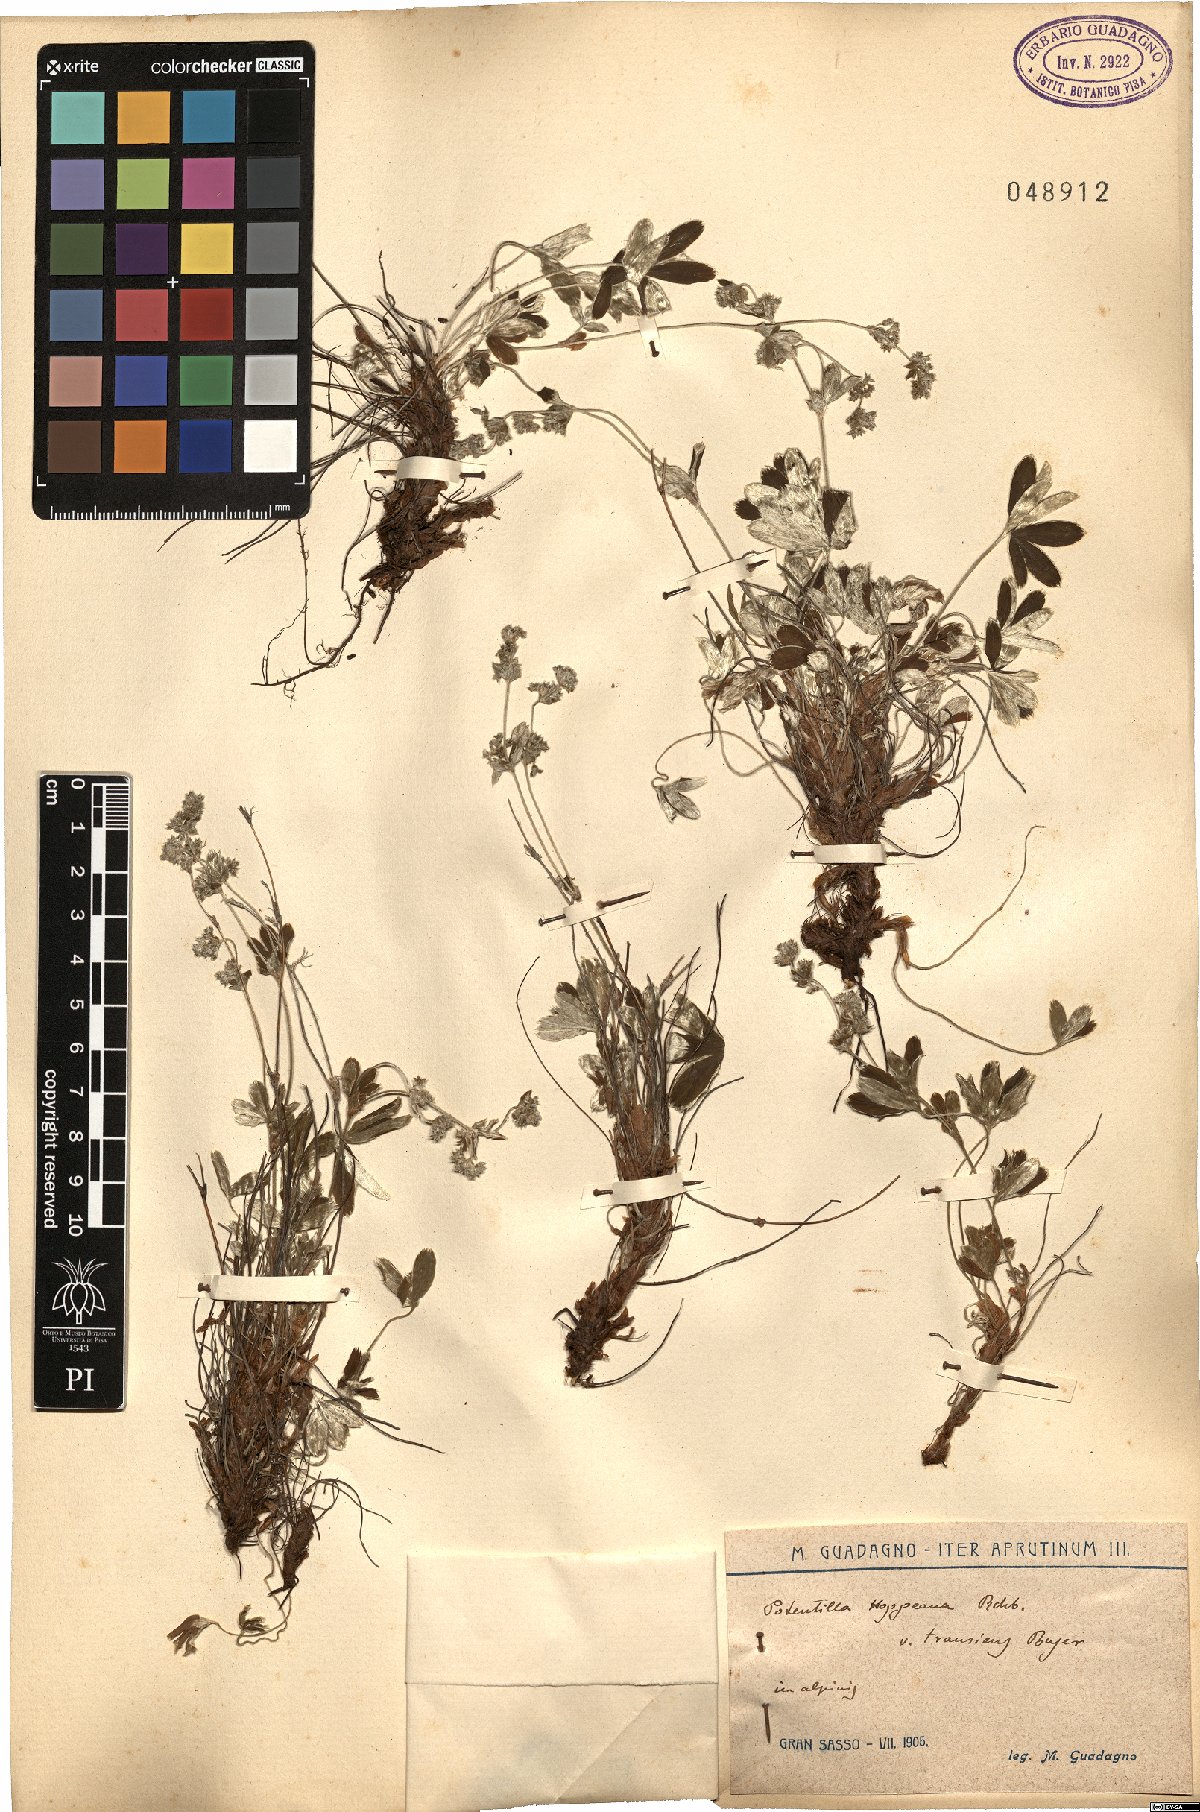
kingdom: Plantae
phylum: Tracheophyta
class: Magnoliopsida
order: Rosales
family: Rosaceae
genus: Alchemilla
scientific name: Alchemilla nitida
